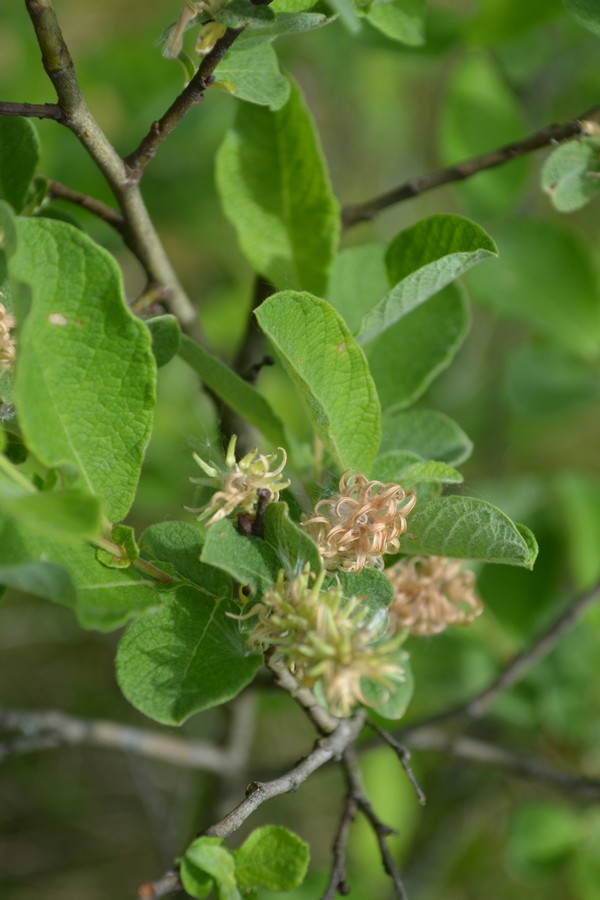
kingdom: Plantae
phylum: Tracheophyta
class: Magnoliopsida
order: Malpighiales
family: Salicaceae
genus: Salix
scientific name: Salix caprea
